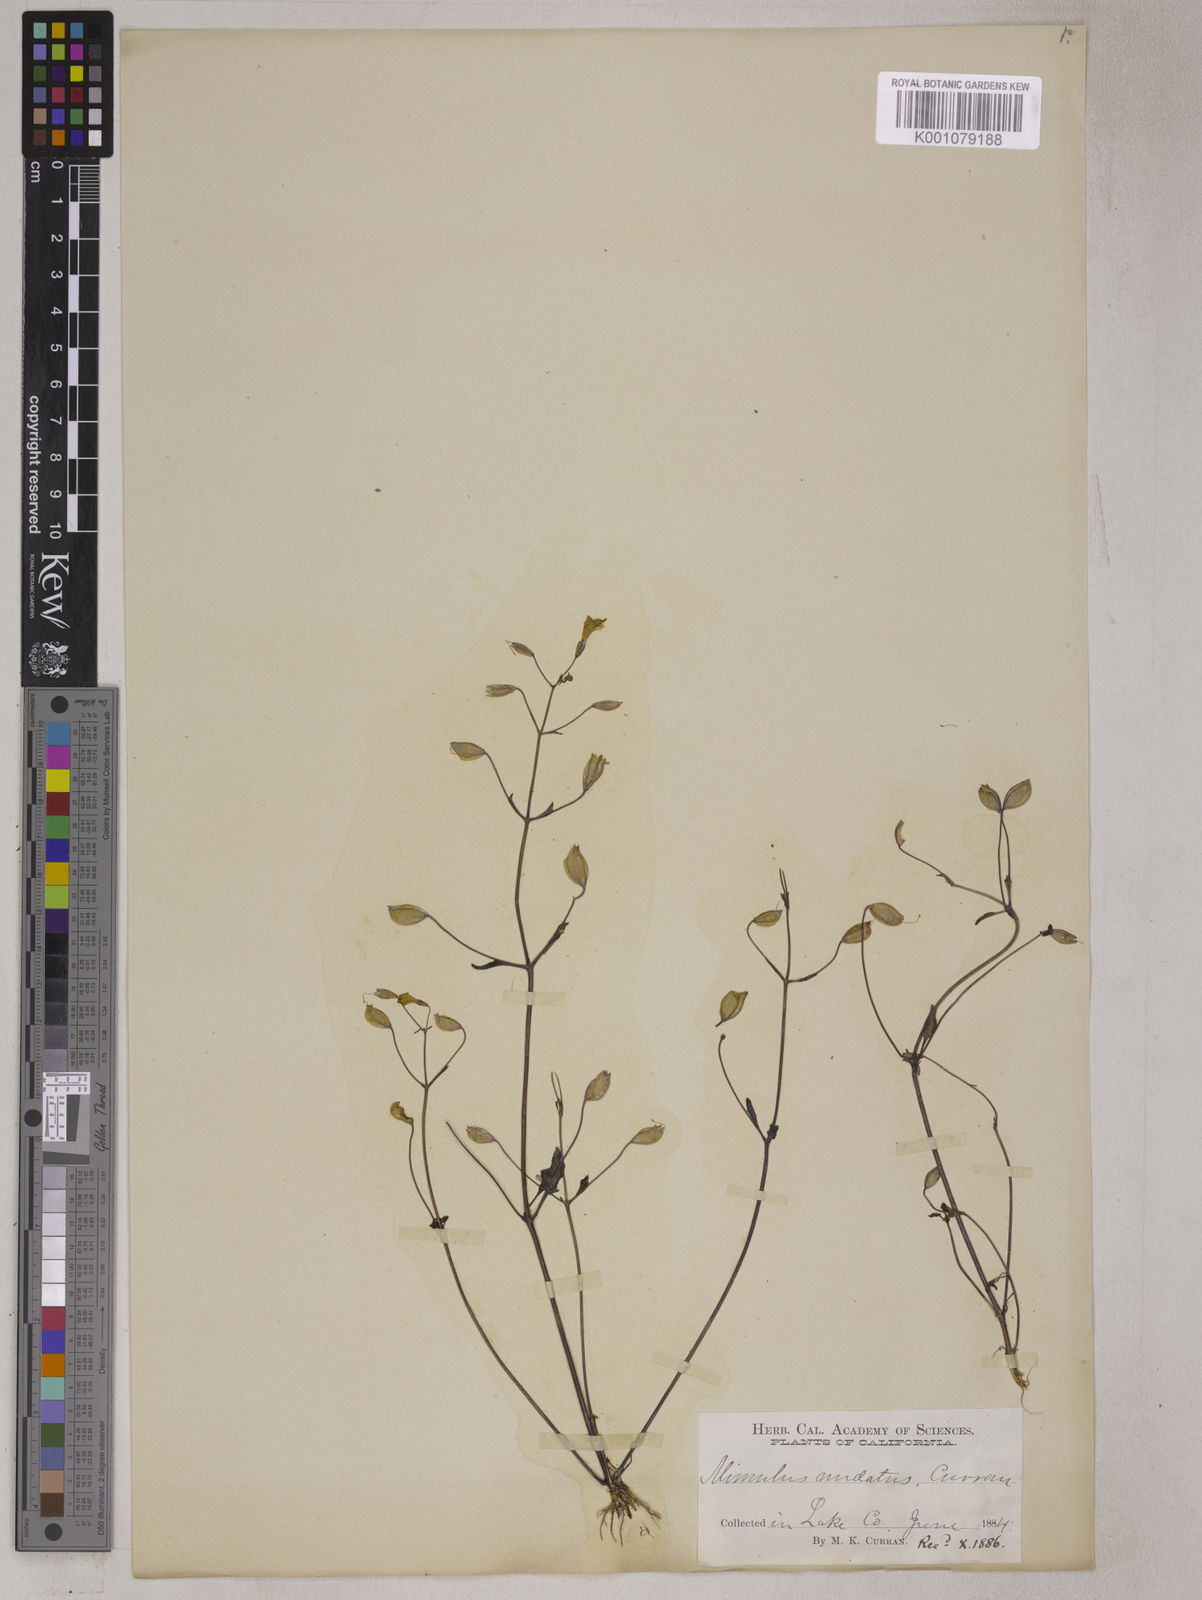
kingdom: Plantae
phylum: Tracheophyta
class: Magnoliopsida
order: Lamiales
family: Phrymaceae
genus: Erythranthe
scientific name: Erythranthe nudata
